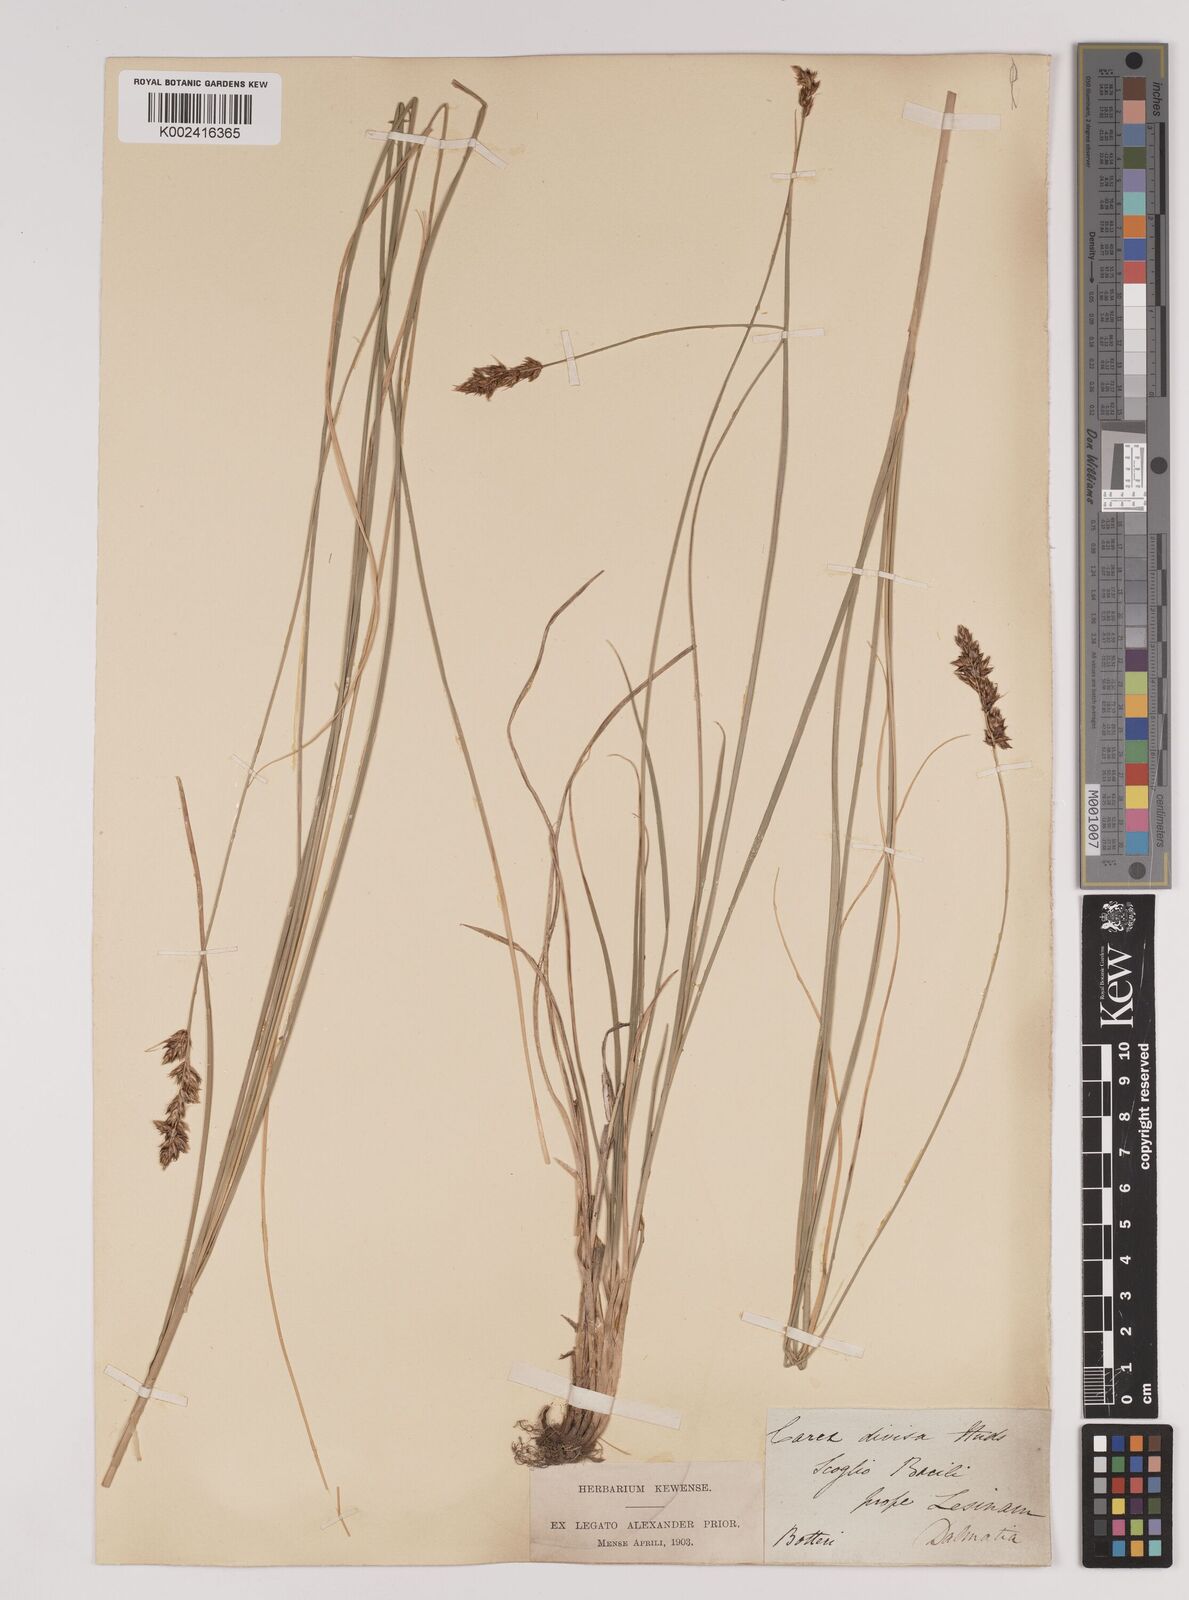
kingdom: Plantae
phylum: Tracheophyta
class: Liliopsida
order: Poales
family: Cyperaceae
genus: Carex
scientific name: Carex divisa
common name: Divided sedge
